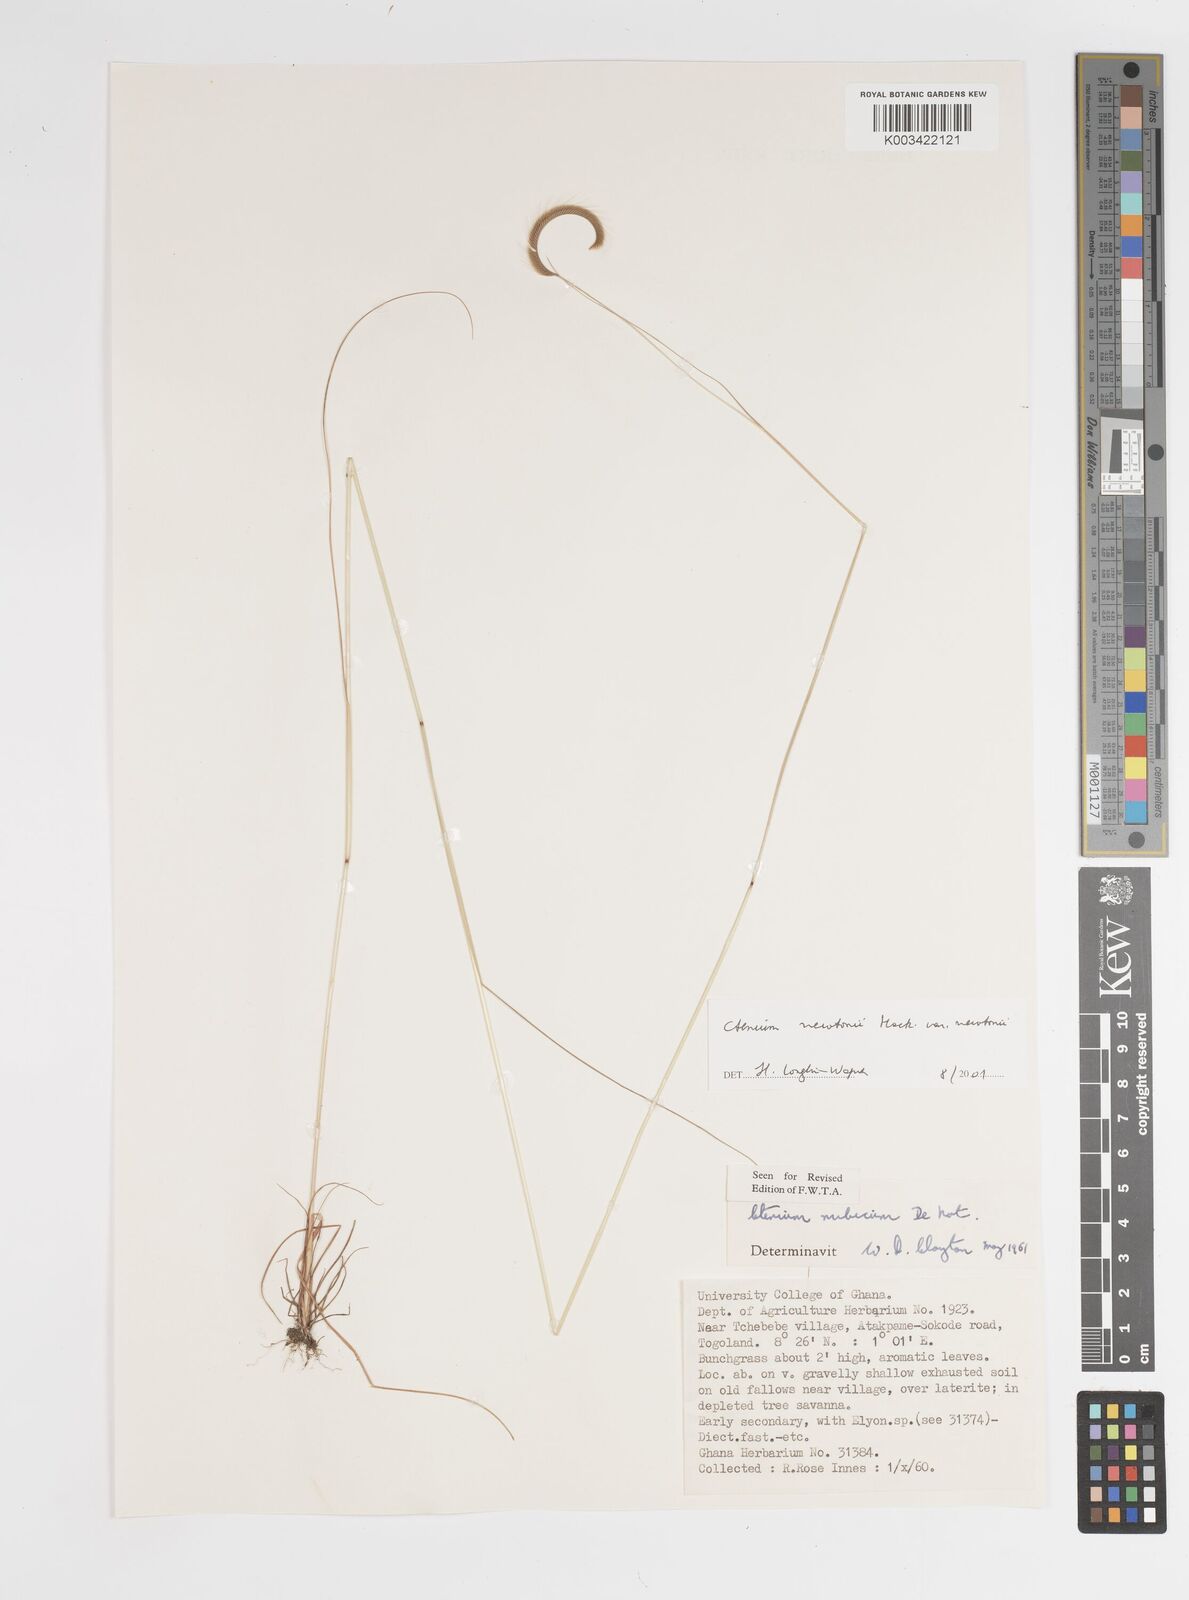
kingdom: Plantae
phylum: Tracheophyta
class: Liliopsida
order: Poales
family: Poaceae
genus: Ctenium
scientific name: Ctenium newtonii
